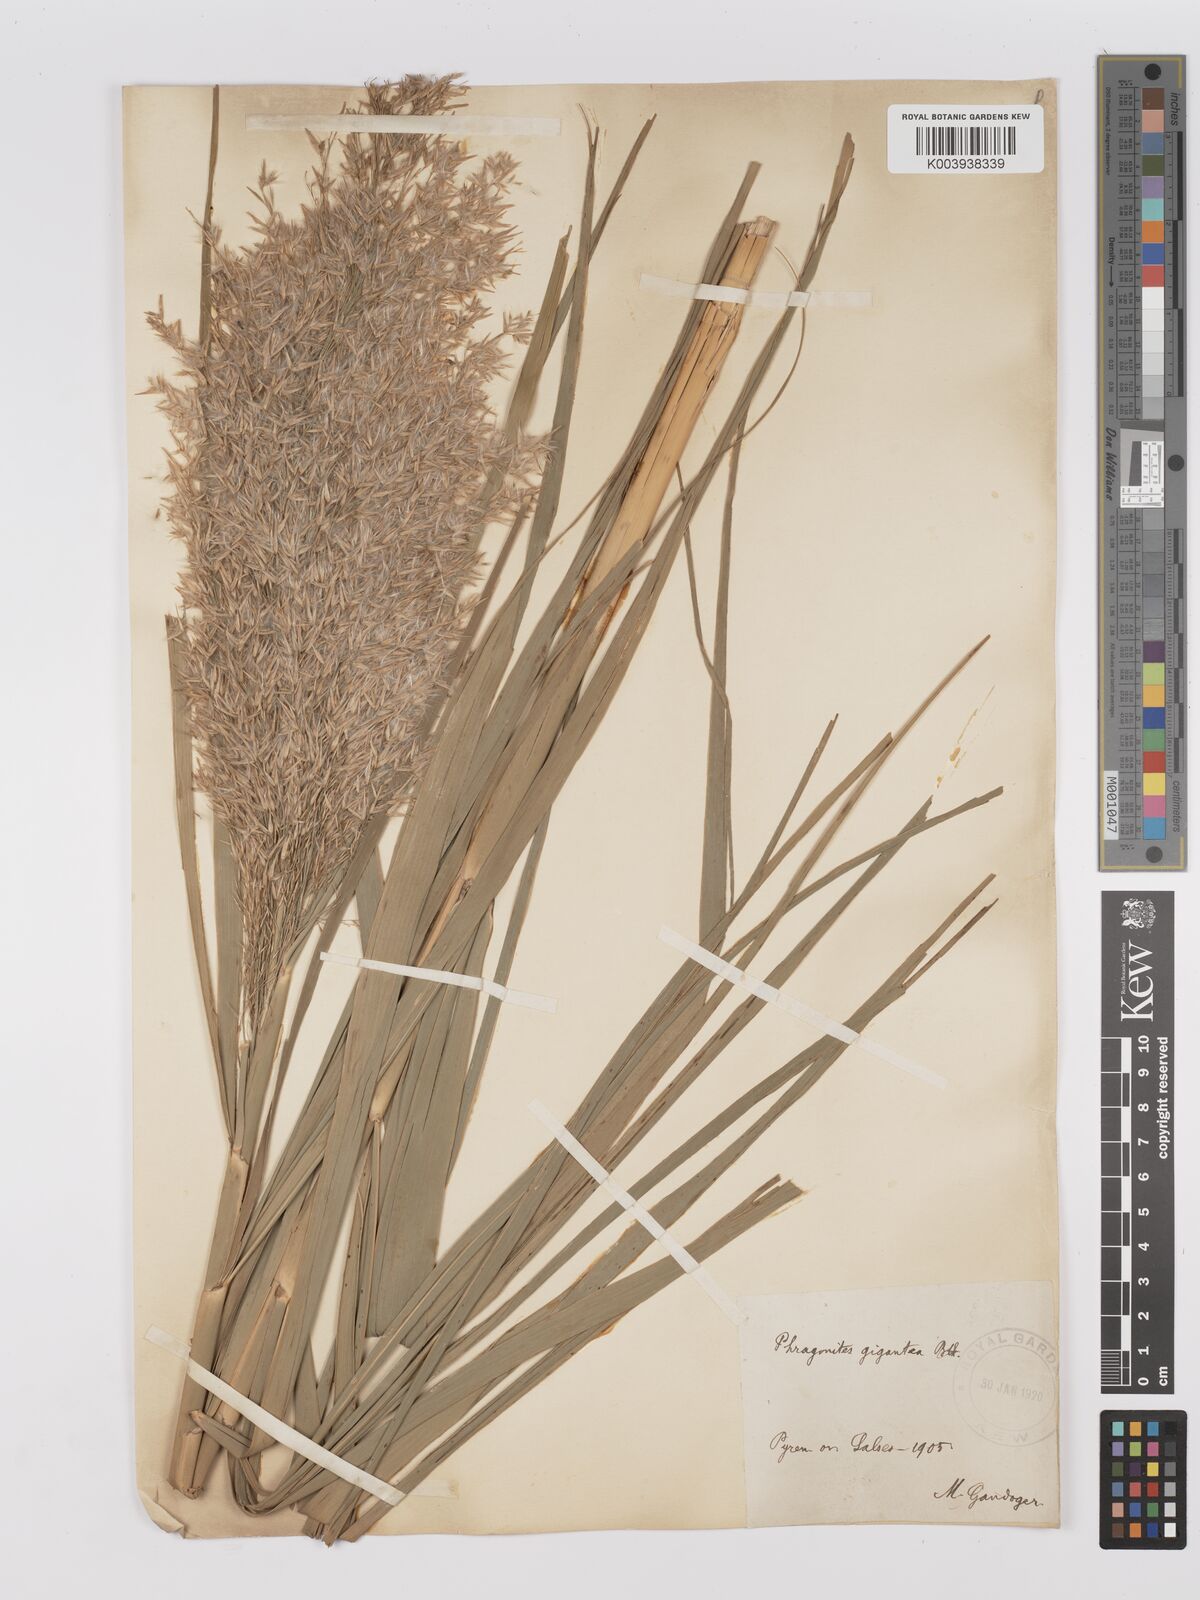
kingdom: Plantae
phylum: Tracheophyta
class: Liliopsida
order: Poales
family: Poaceae
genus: Phragmites
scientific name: Phragmites australis
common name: Common reed
